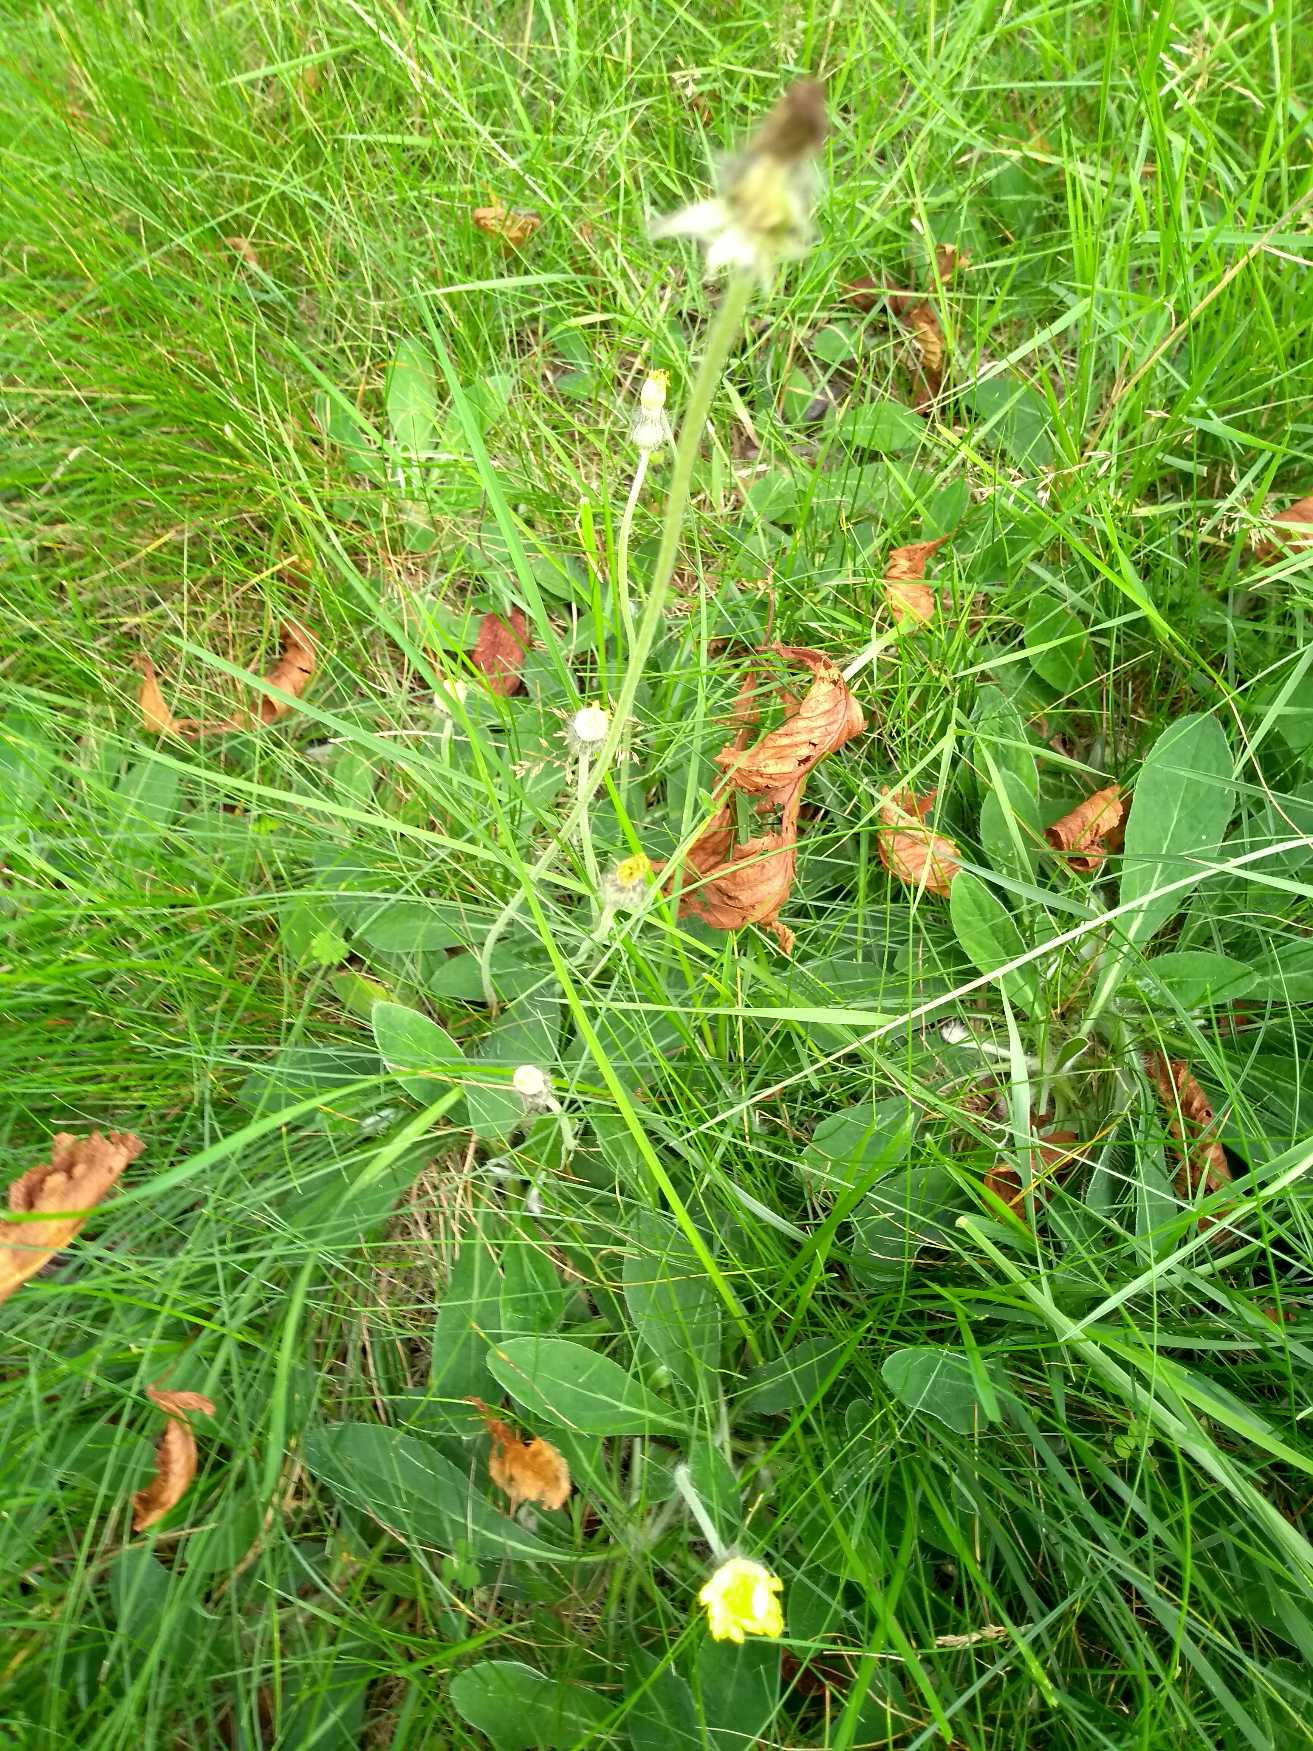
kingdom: Plantae
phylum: Tracheophyta
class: Magnoliopsida
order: Asterales
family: Asteraceae
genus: Pilosella
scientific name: Pilosella officinarum
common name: Håret høgeurt
